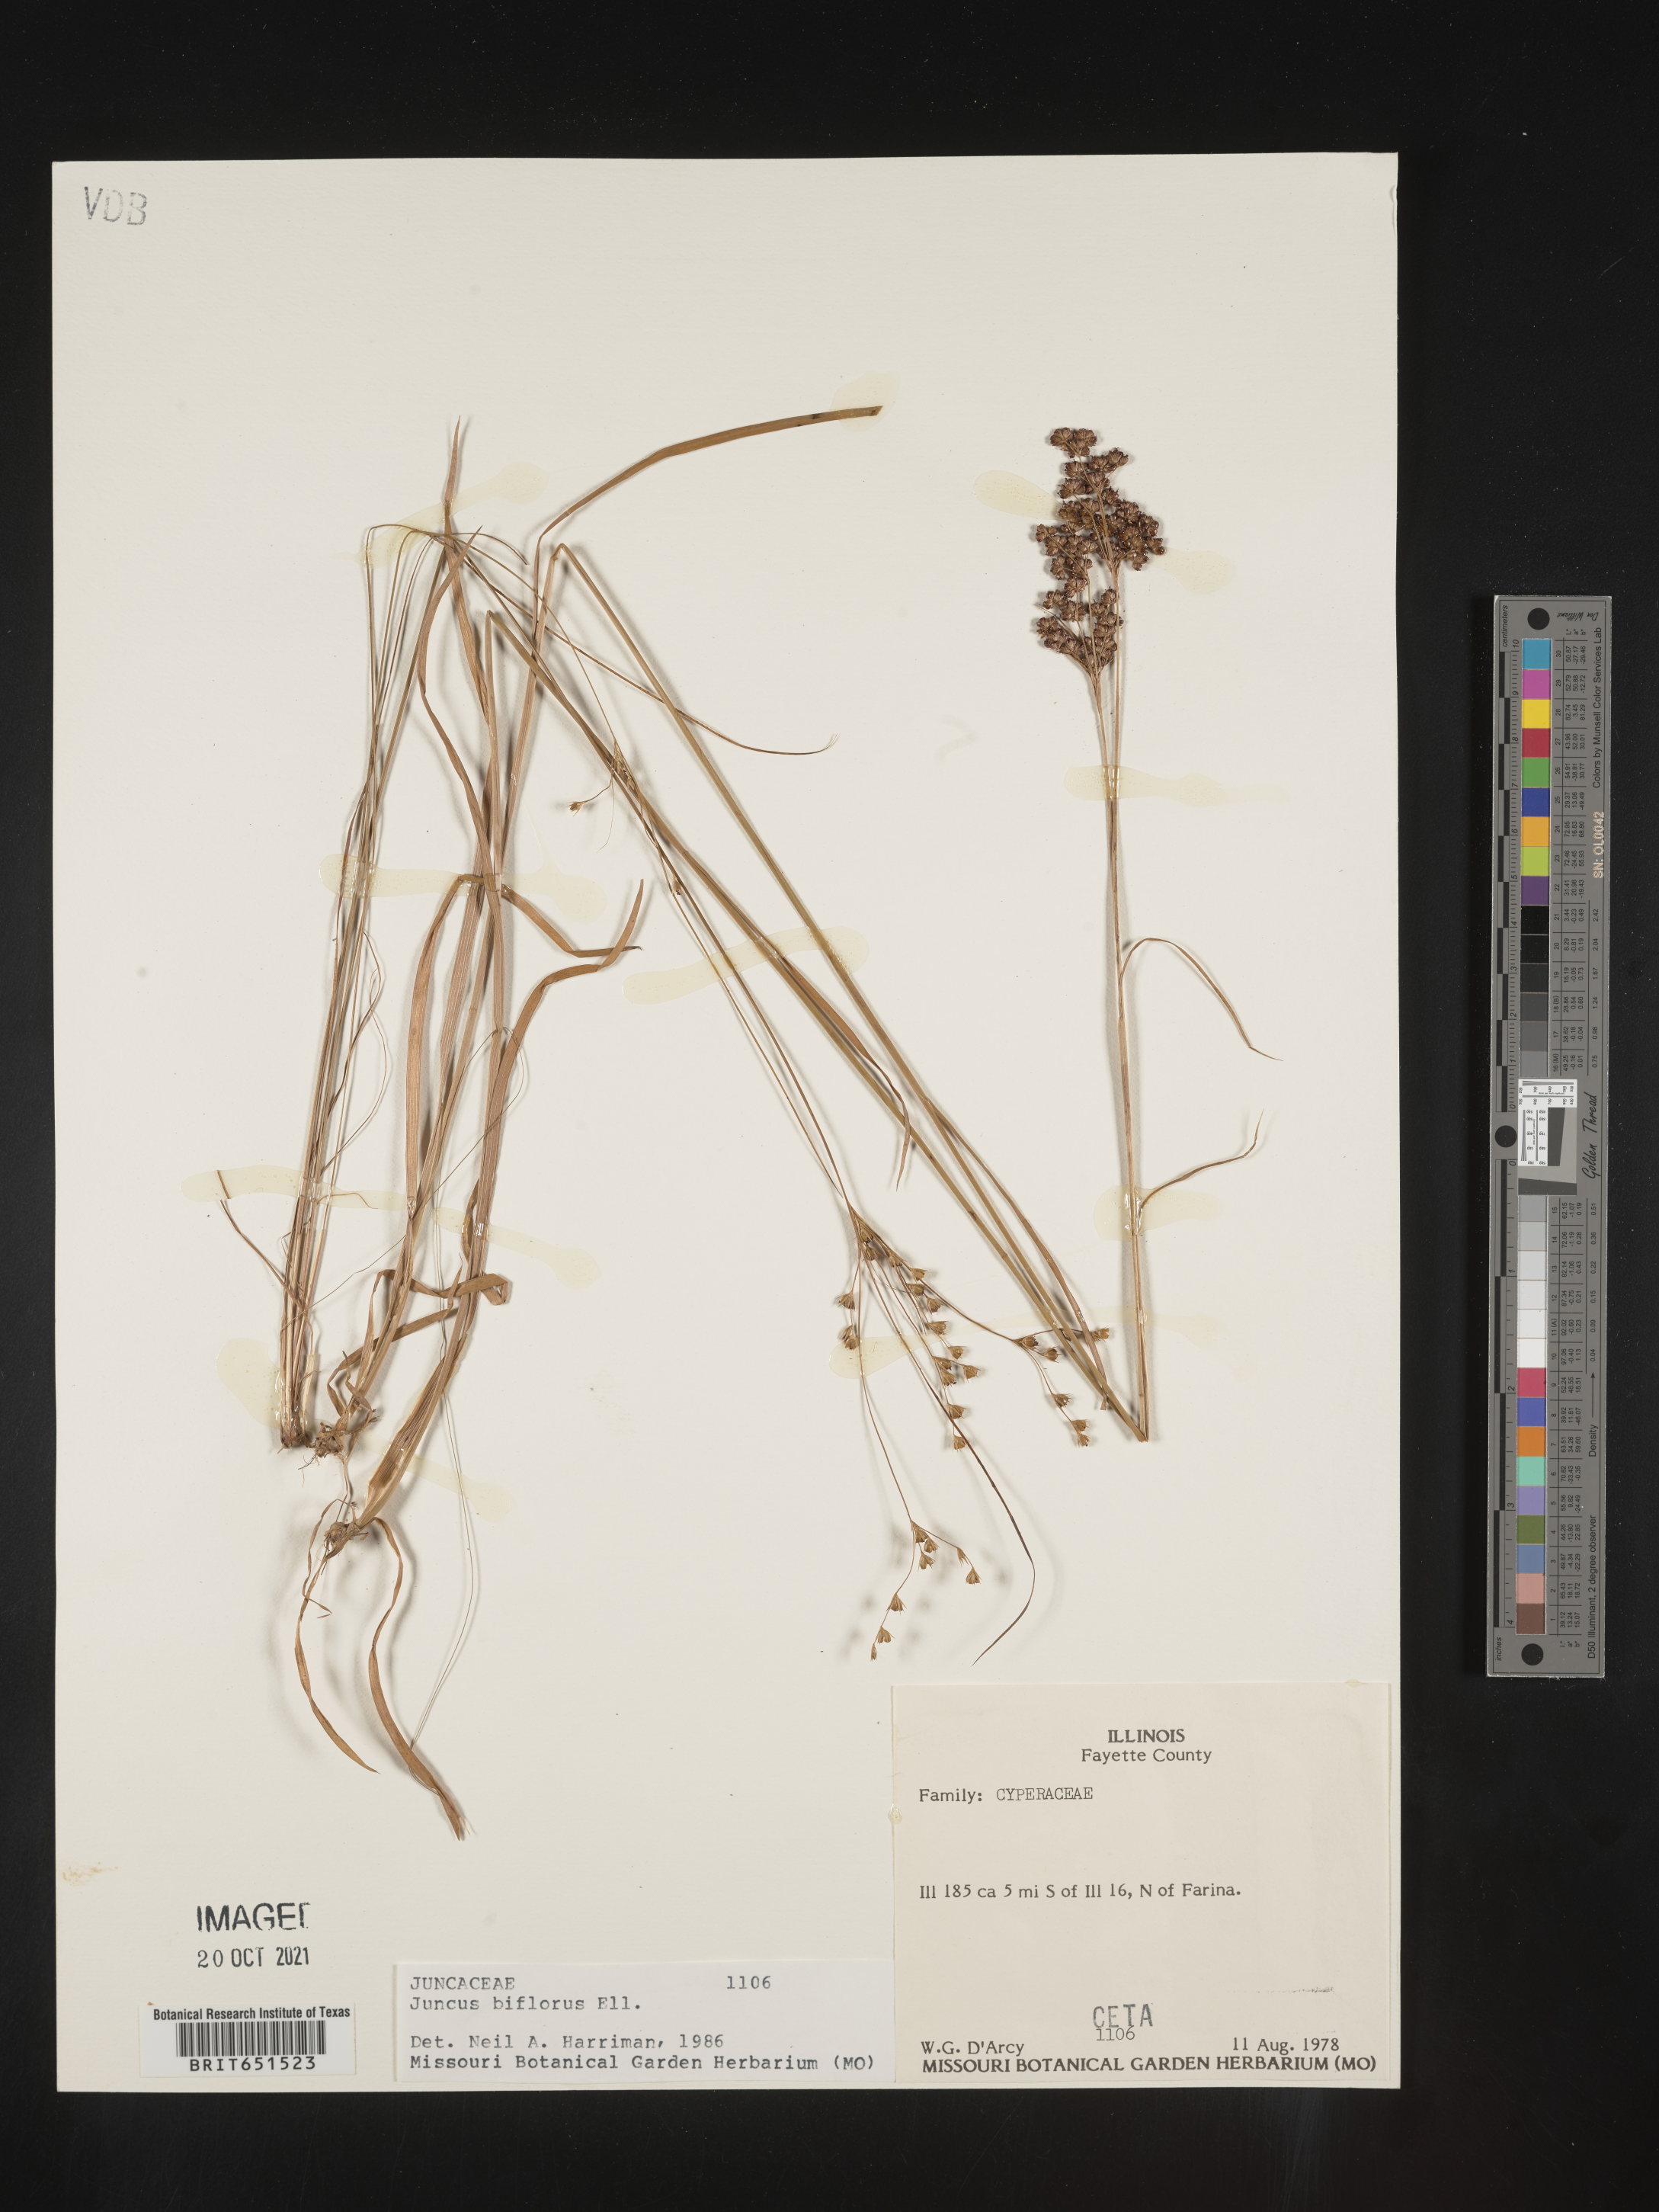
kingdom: Plantae
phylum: Tracheophyta
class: Liliopsida
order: Poales
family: Juncaceae
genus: Juncus
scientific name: Juncus biflorus
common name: Two-flowered rush
